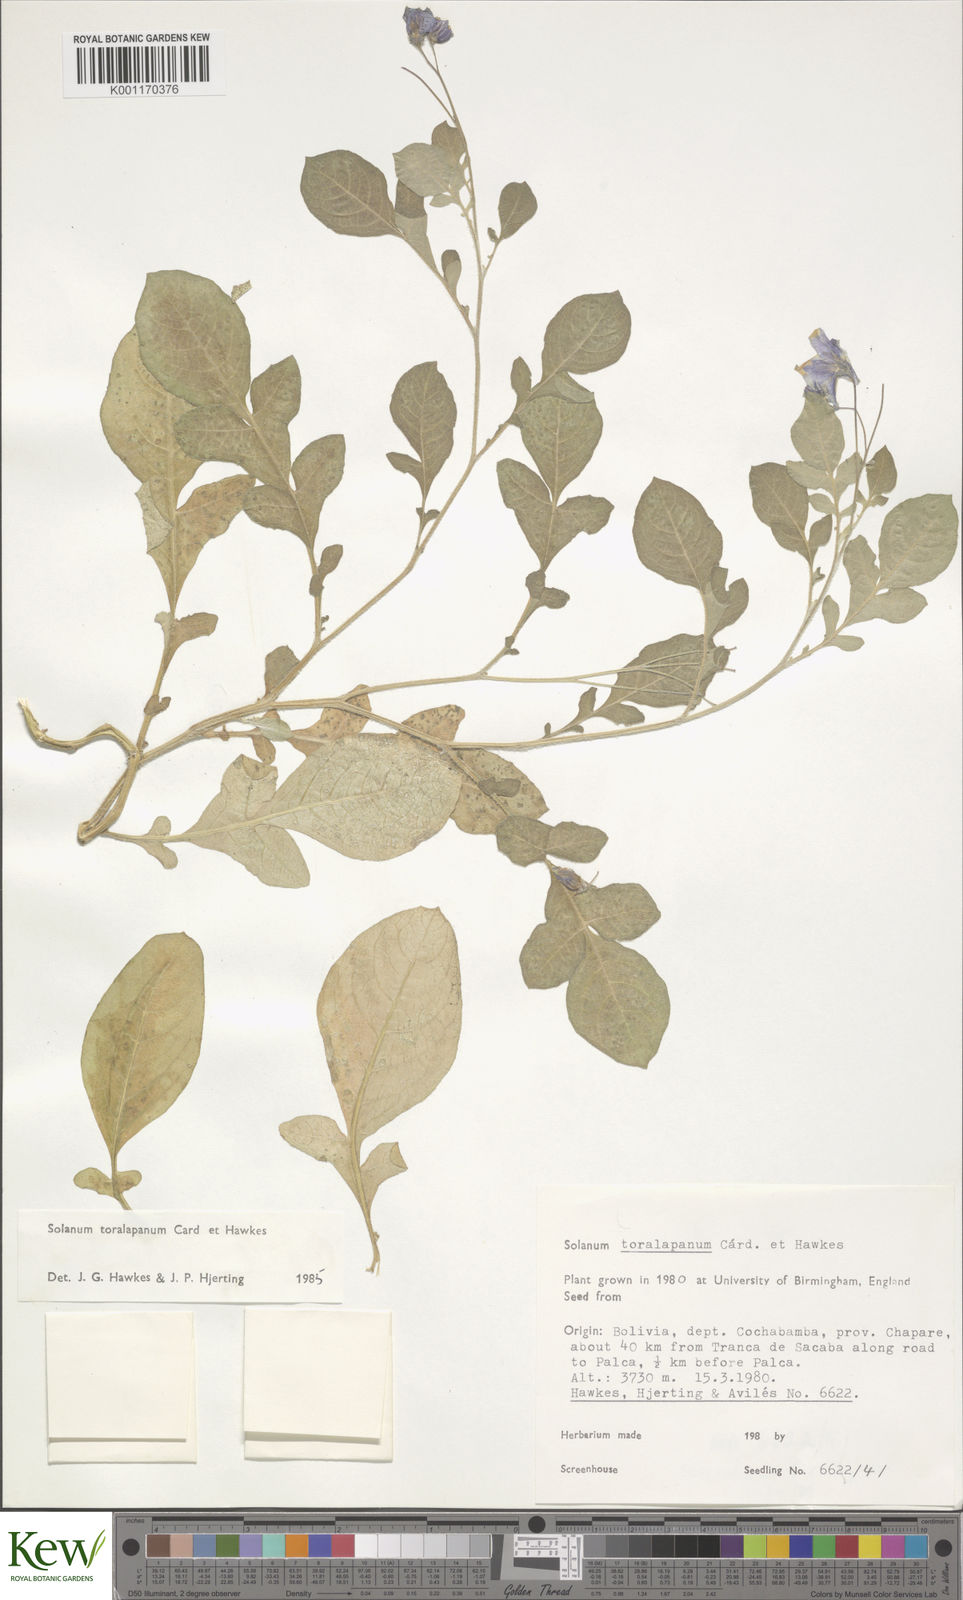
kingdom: Plantae
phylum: Tracheophyta
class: Magnoliopsida
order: Solanales
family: Solanaceae
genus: Solanum
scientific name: Solanum
